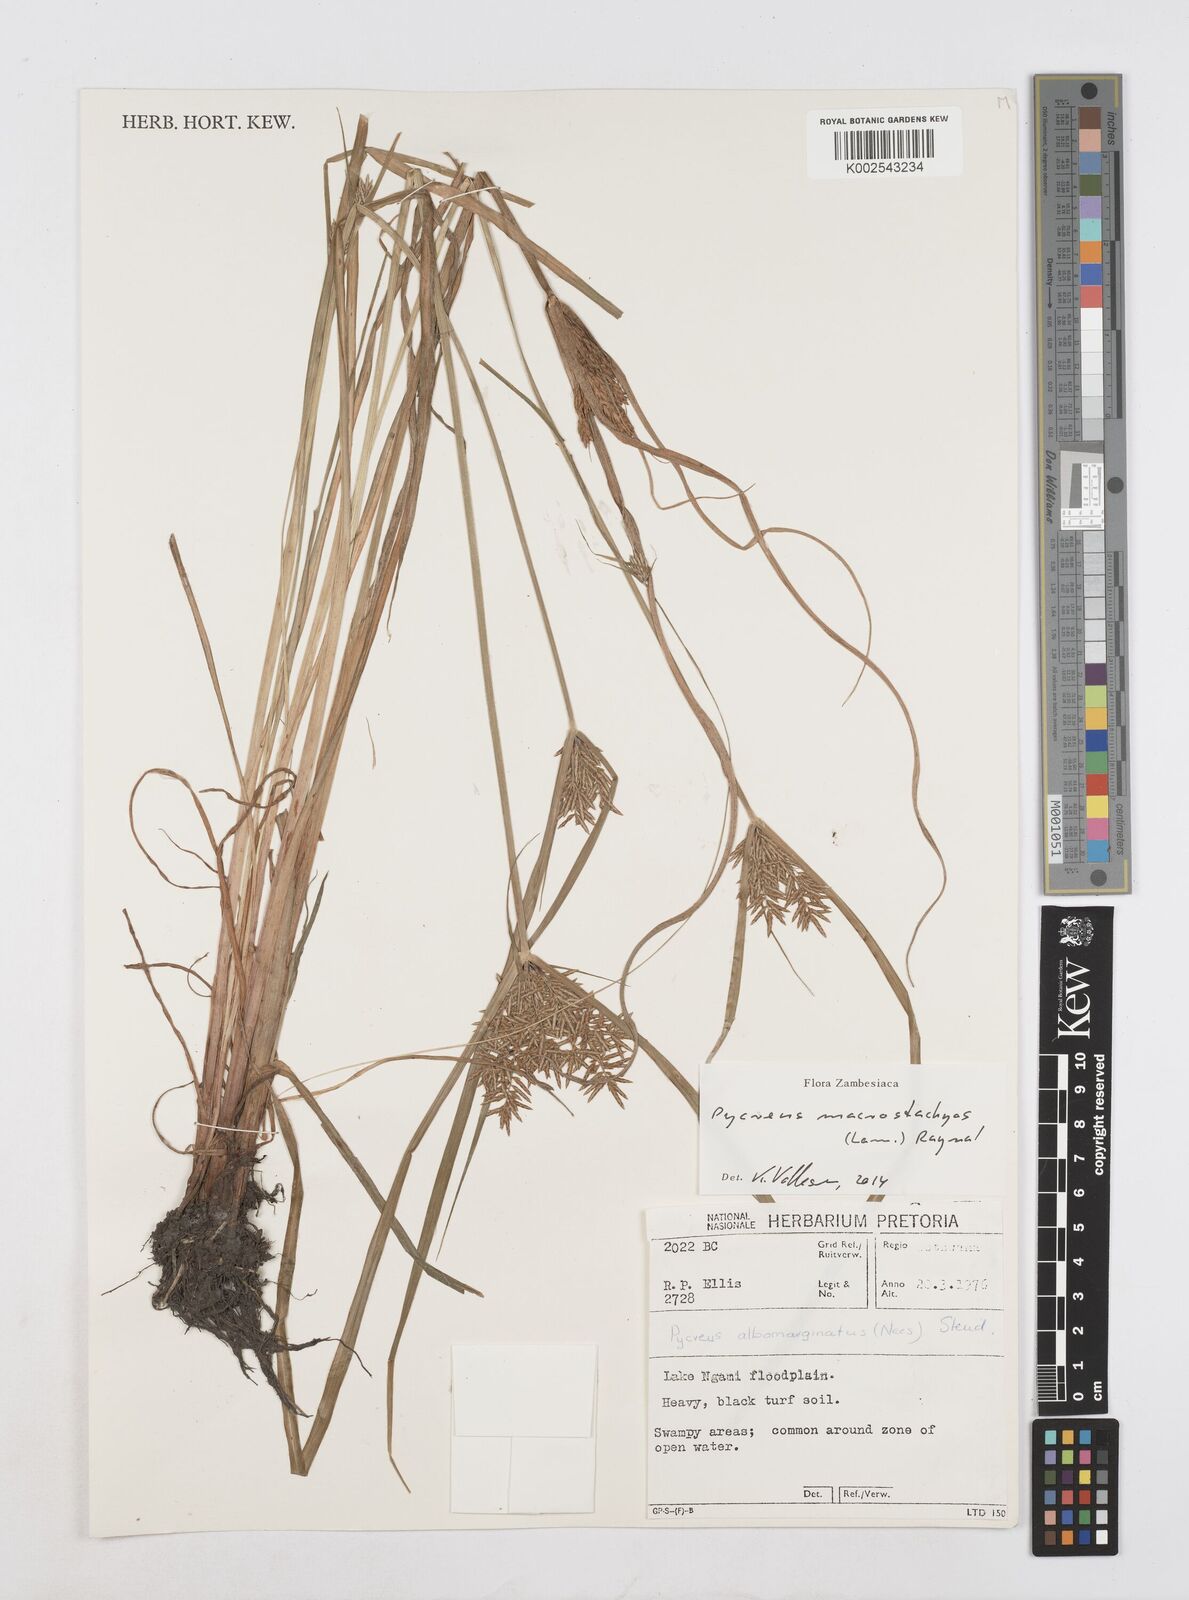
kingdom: Plantae
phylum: Tracheophyta
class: Liliopsida
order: Poales
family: Cyperaceae
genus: Cyperus
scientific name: Cyperus macrostachyos
